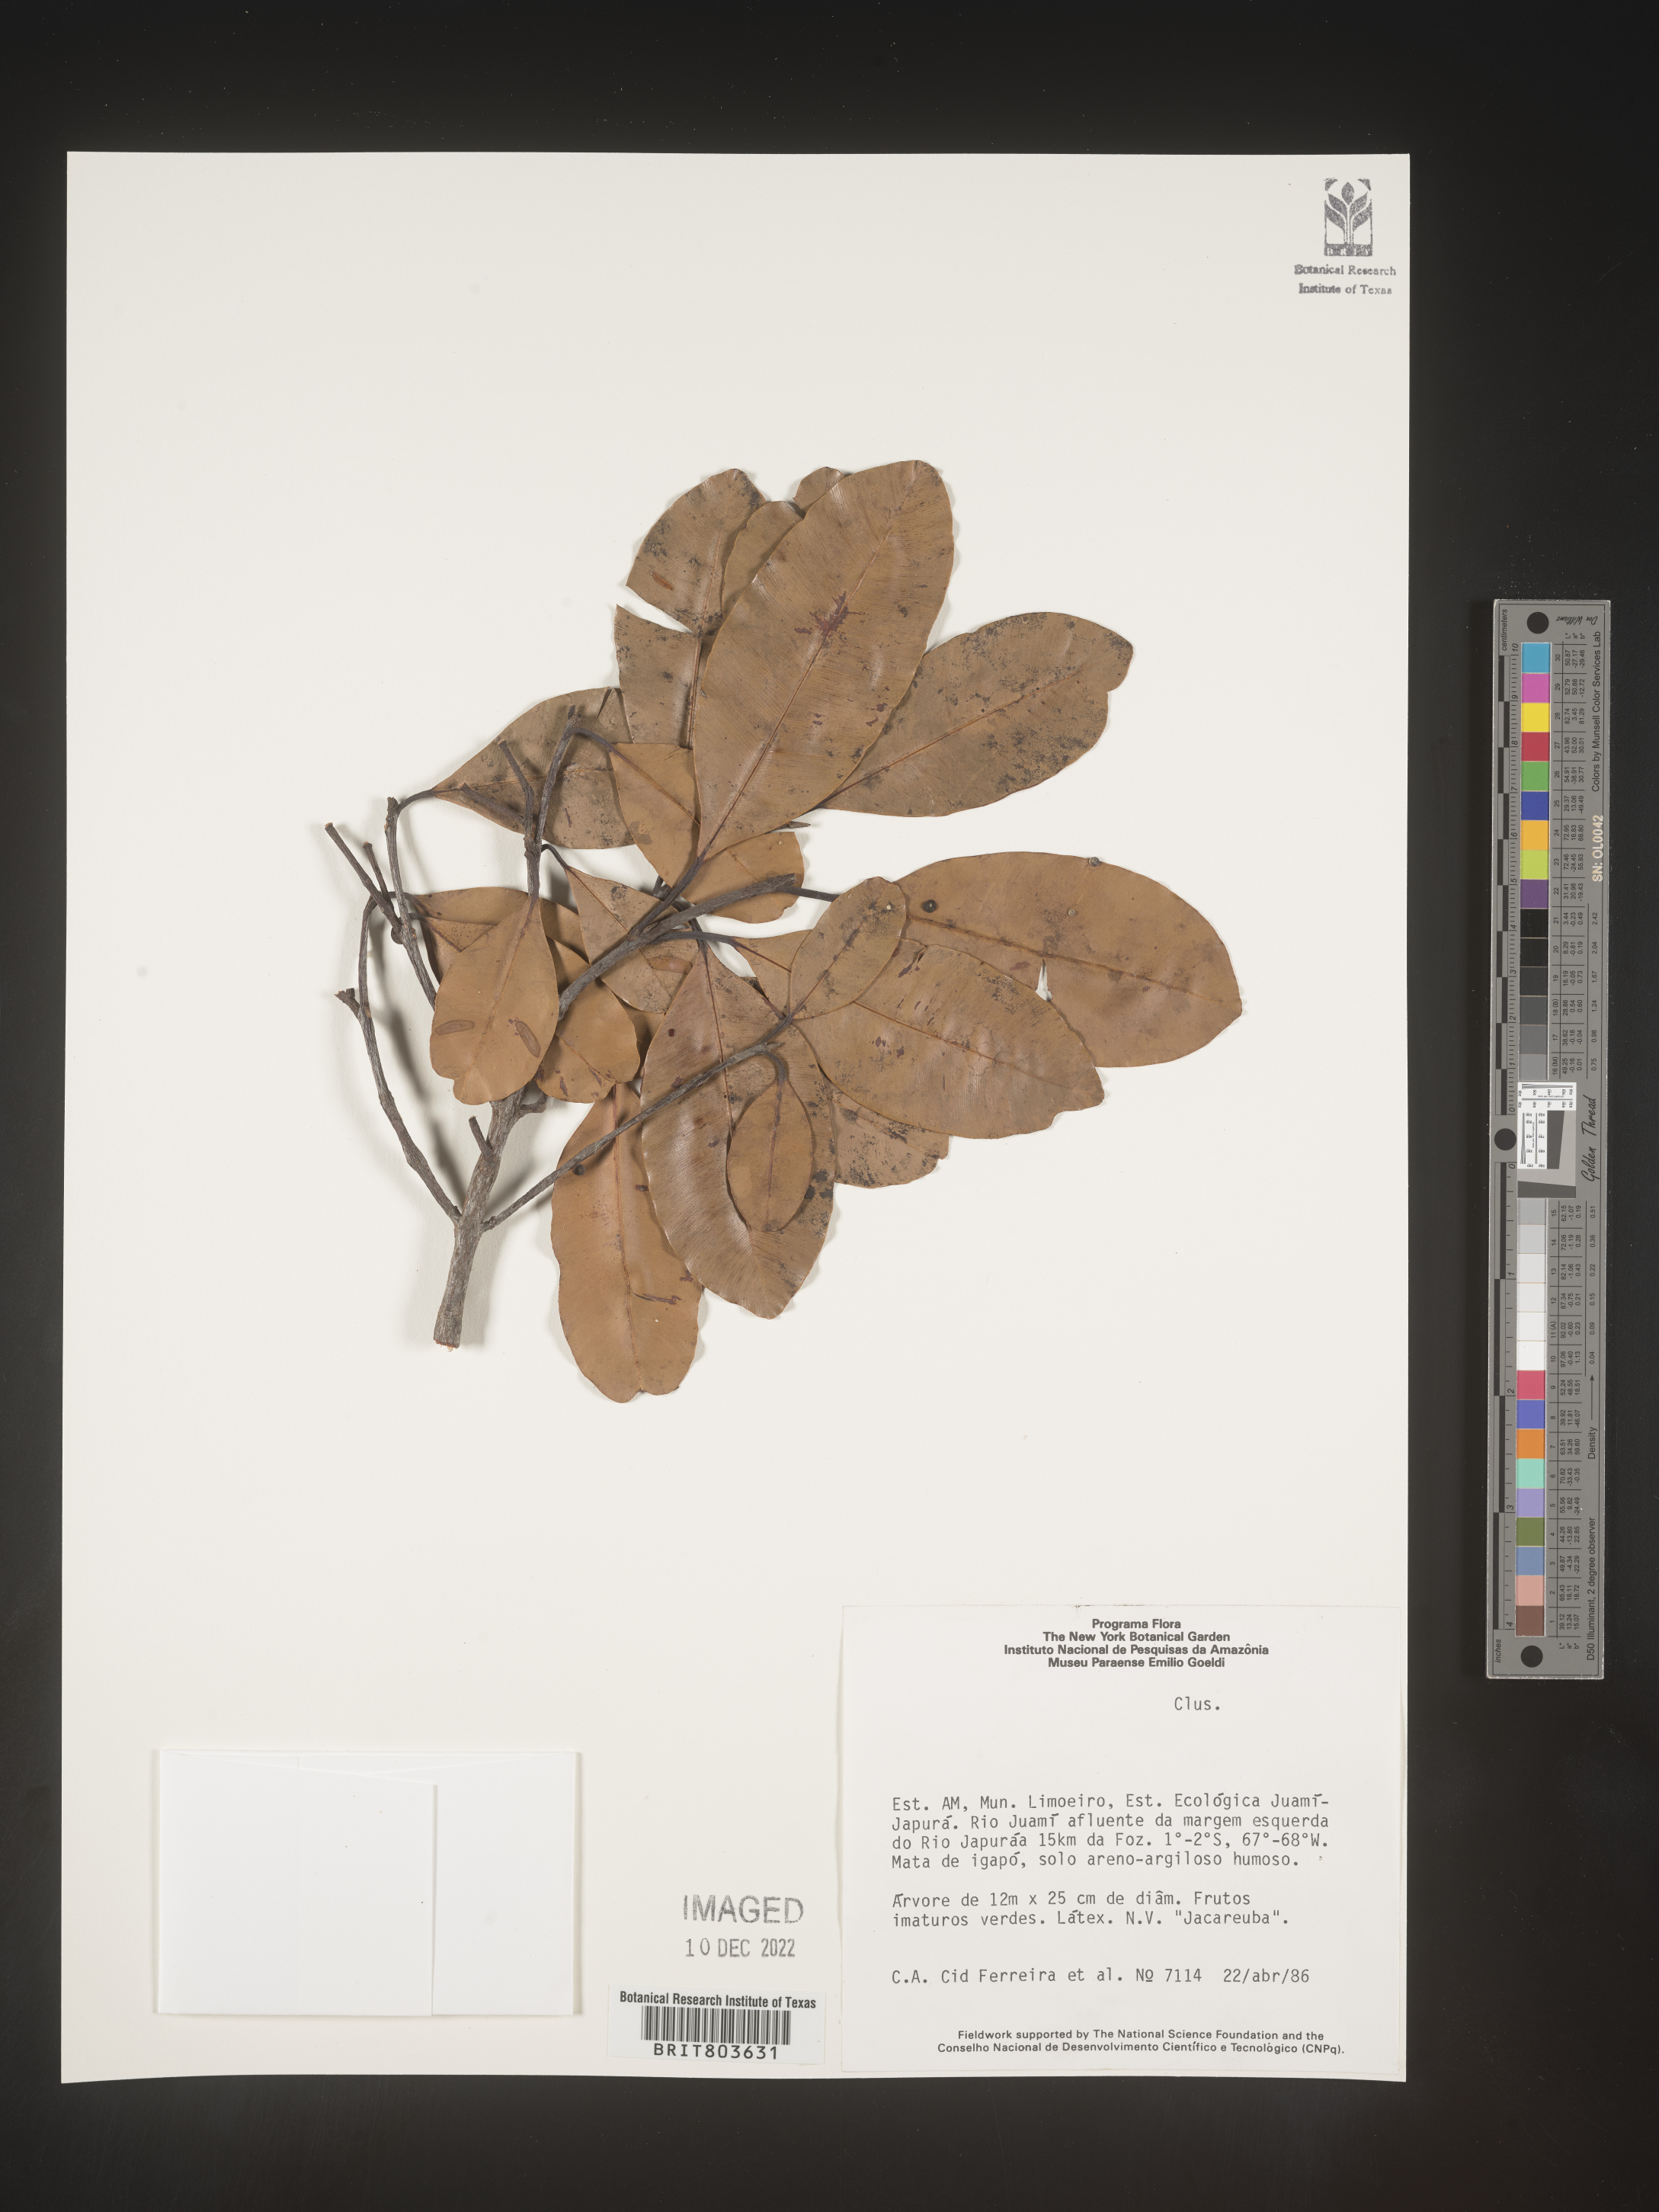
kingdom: Plantae
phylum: Tracheophyta
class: Magnoliopsida
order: Malpighiales
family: Clusiaceae
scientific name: Clusiaceae
